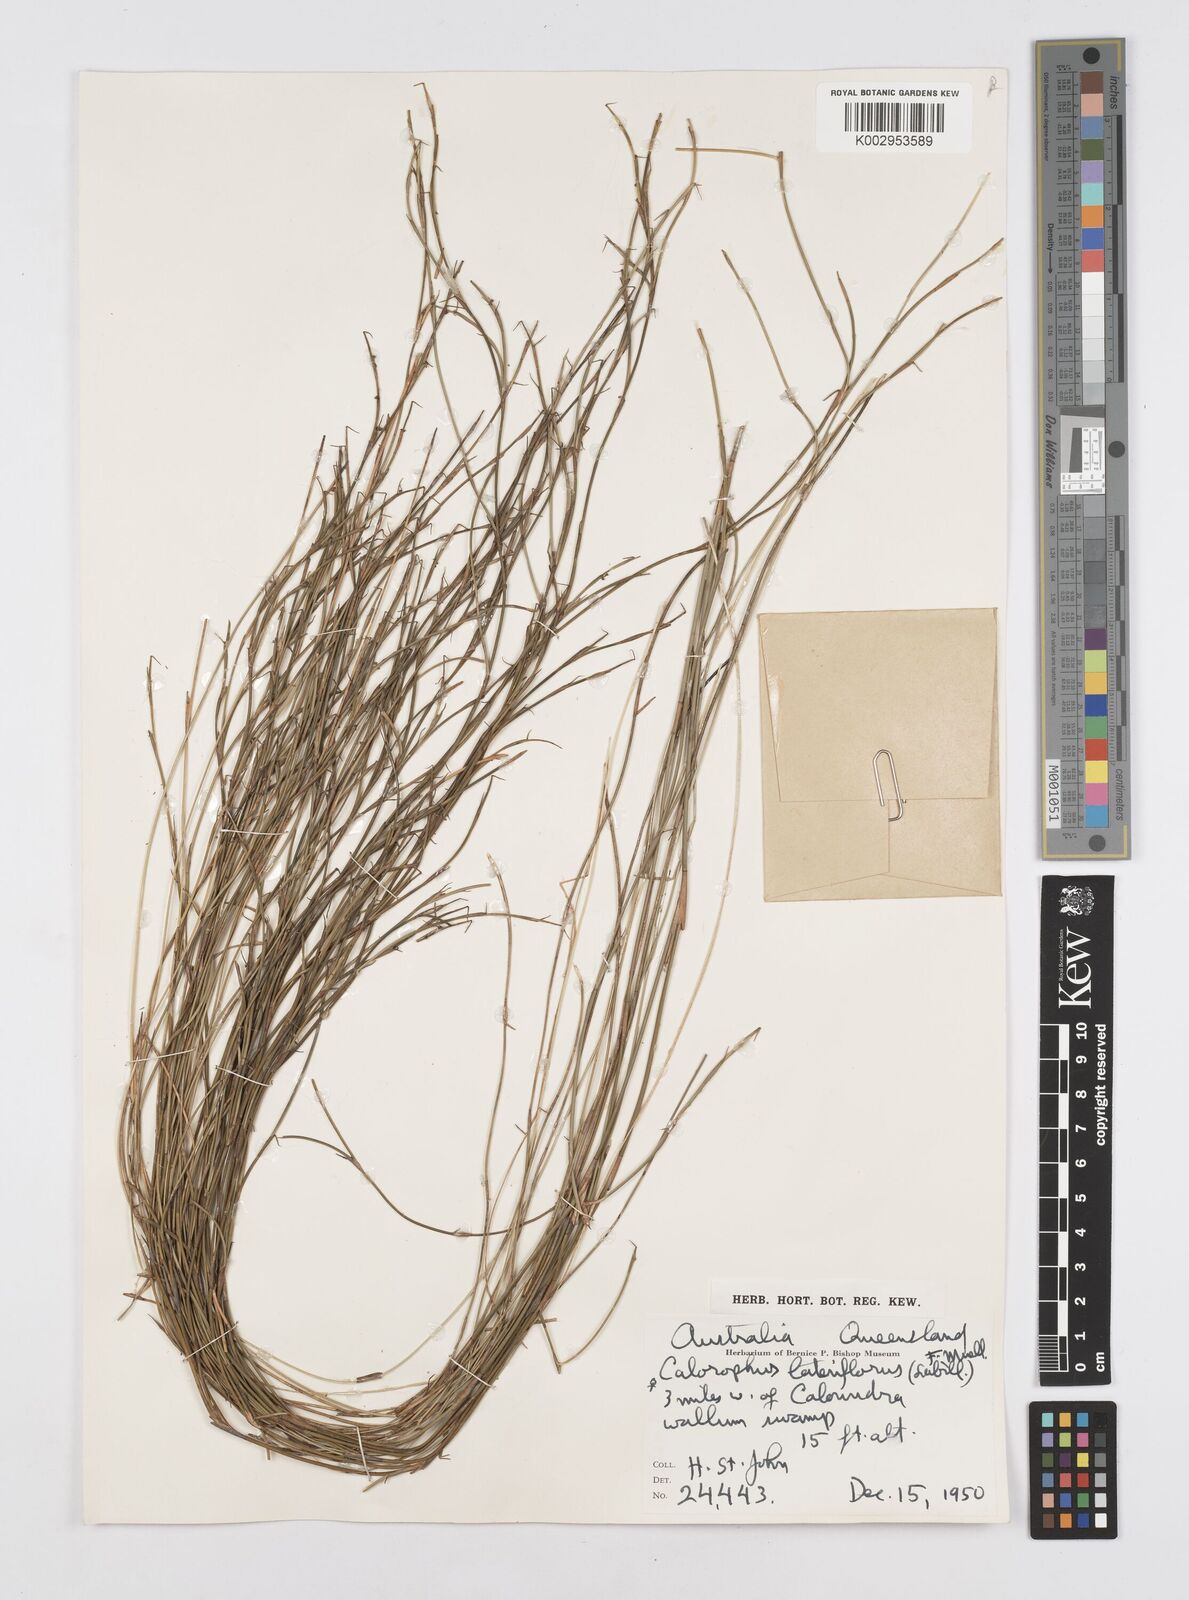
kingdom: Plantae
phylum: Tracheophyta
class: Liliopsida
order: Poales
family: Restionaceae
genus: Empodisma
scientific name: Empodisma minus
